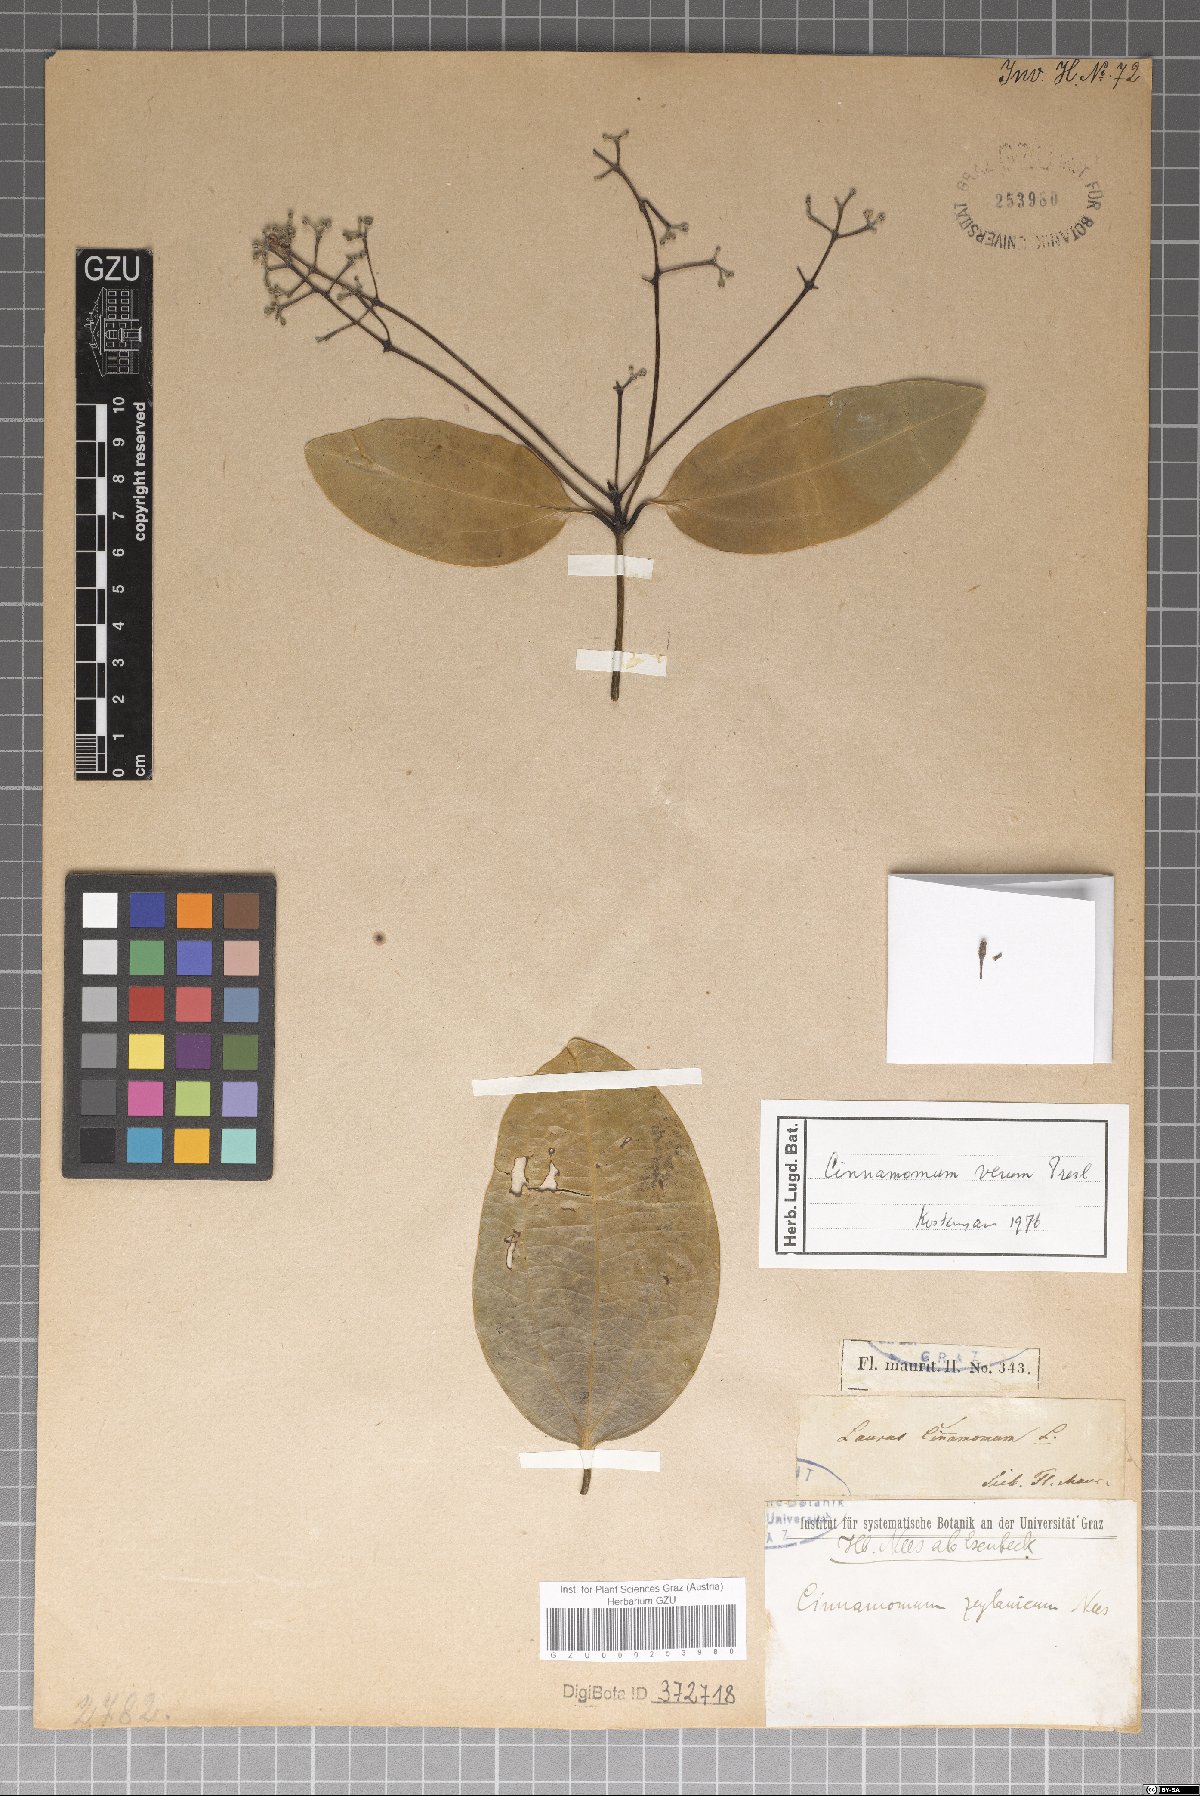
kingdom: Plantae
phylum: Tracheophyta
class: Magnoliopsida
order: Laurales
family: Lauraceae
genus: Cinnamomum
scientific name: Cinnamomum verum
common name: Cinnamon
